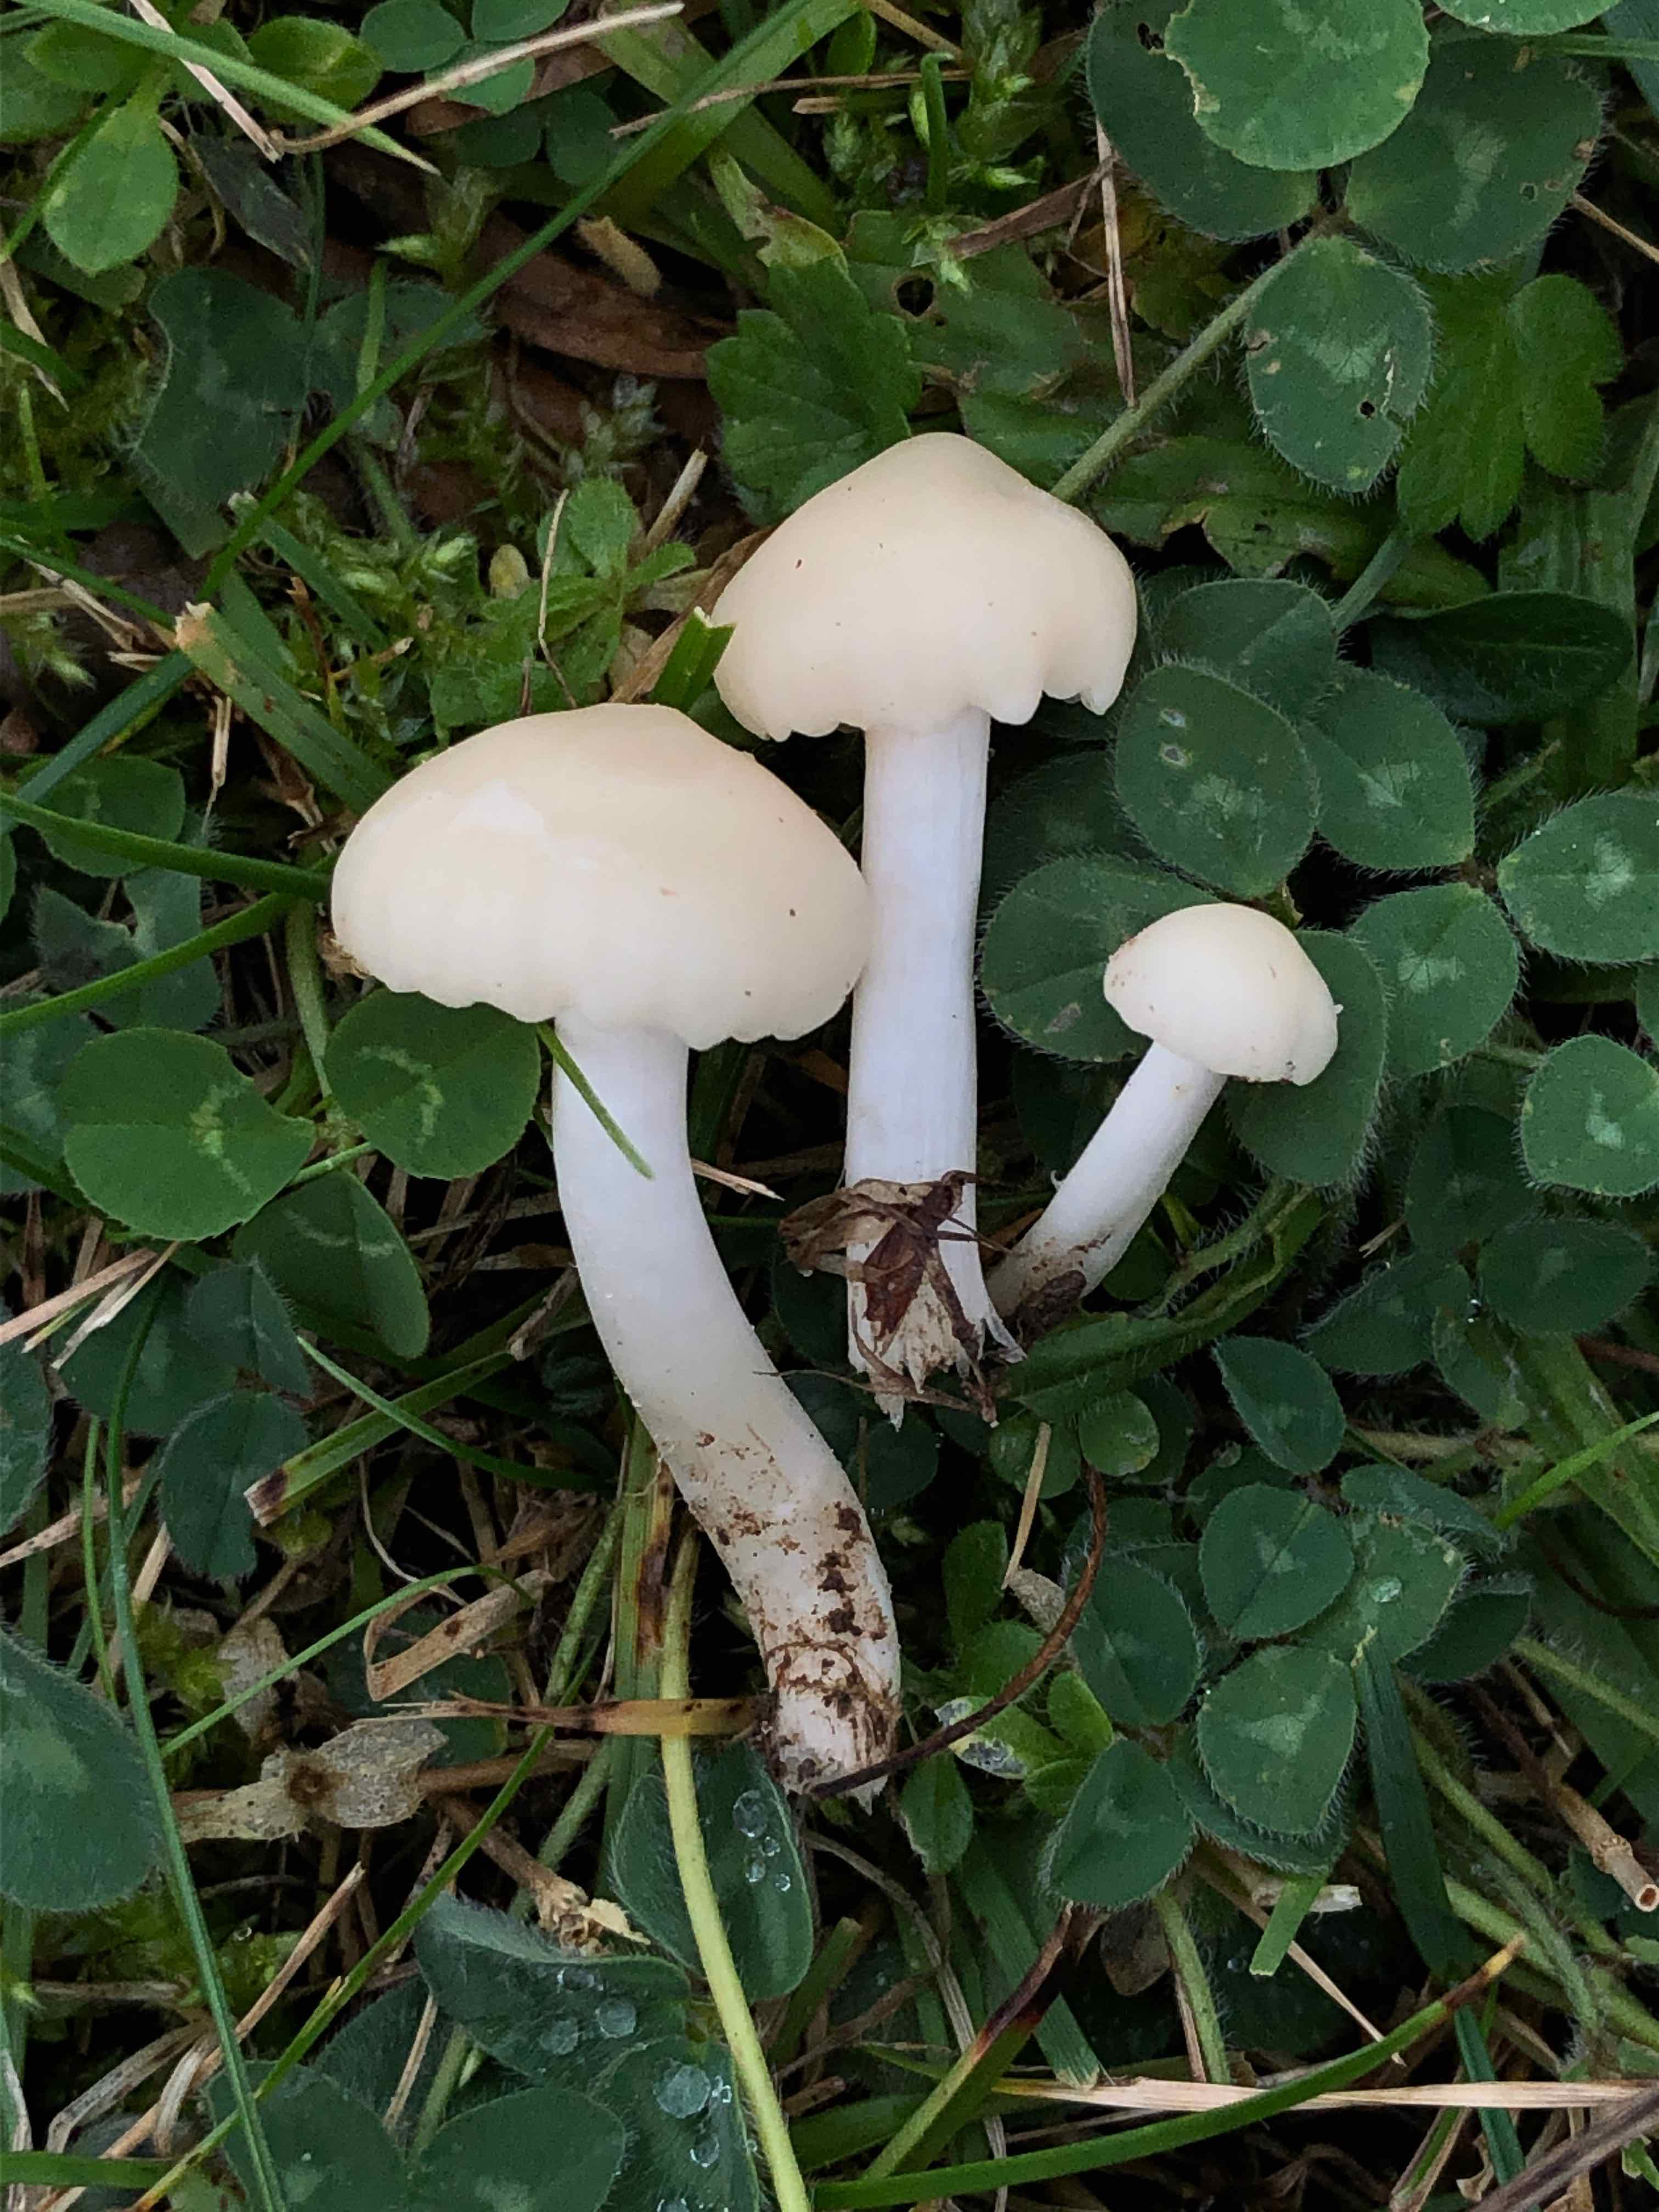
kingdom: Fungi
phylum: Basidiomycota
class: Agaricomycetes
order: Agaricales
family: Hygrophoraceae
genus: Cuphophyllus
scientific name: Cuphophyllus russocoriaceus
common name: ruslæder-vokshat
